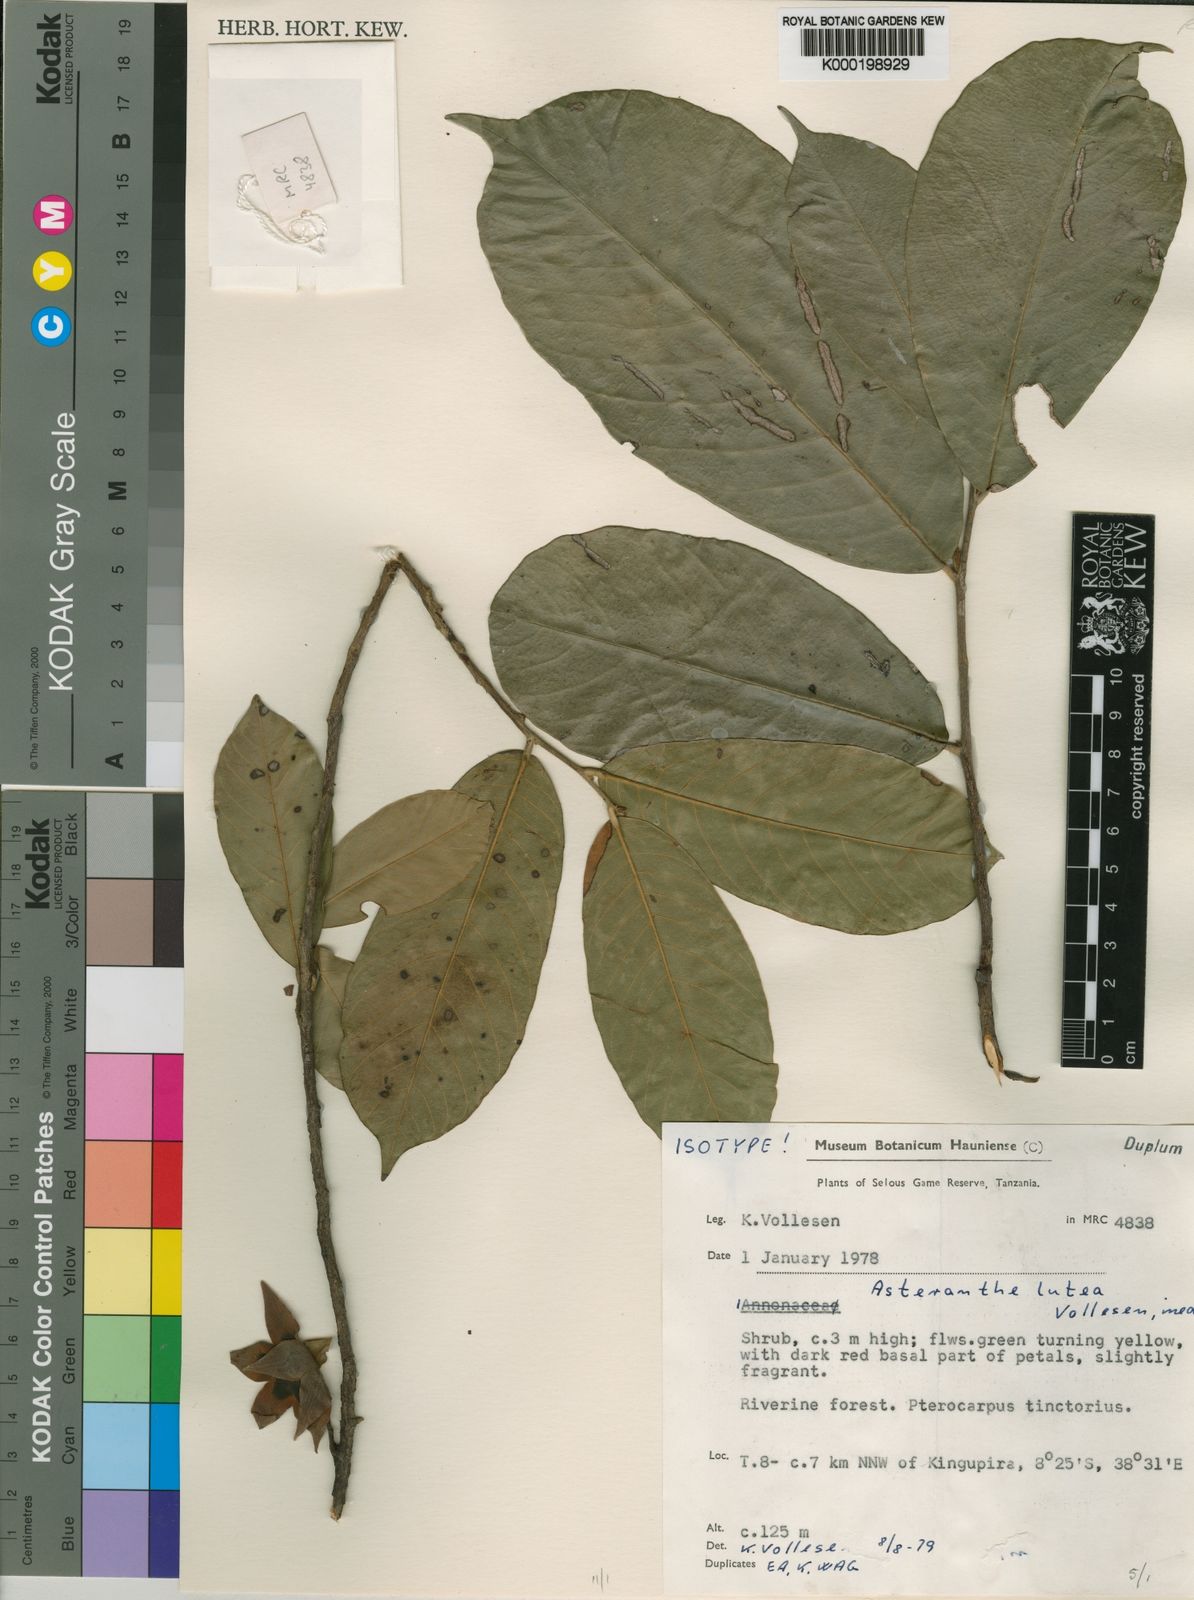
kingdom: Plantae
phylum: Tracheophyta
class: Magnoliopsida
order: Magnoliales
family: Annonaceae
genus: Asteranthe
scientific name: Asteranthe lutea
